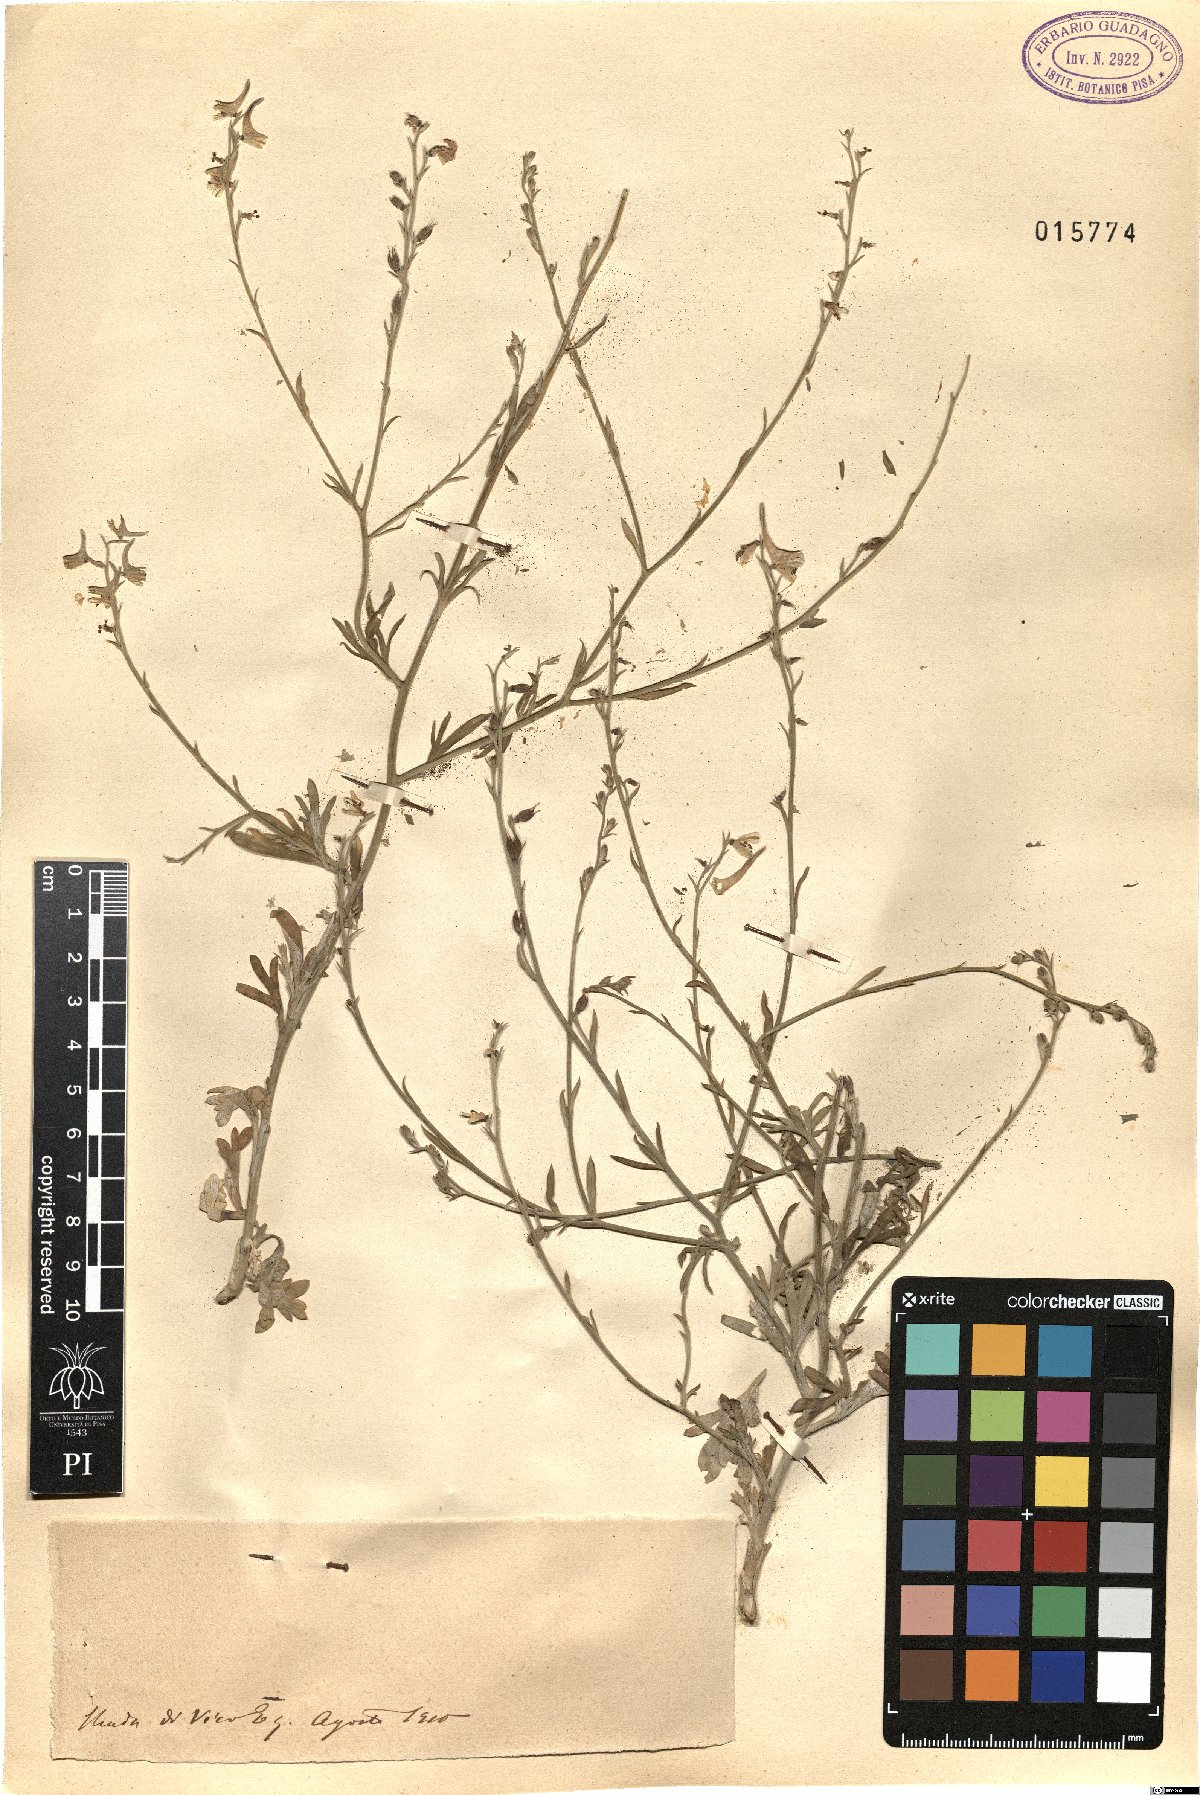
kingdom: Plantae
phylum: Tracheophyta
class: Magnoliopsida
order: Ranunculales
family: Ranunculaceae
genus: Delphinium
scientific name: Delphinium
